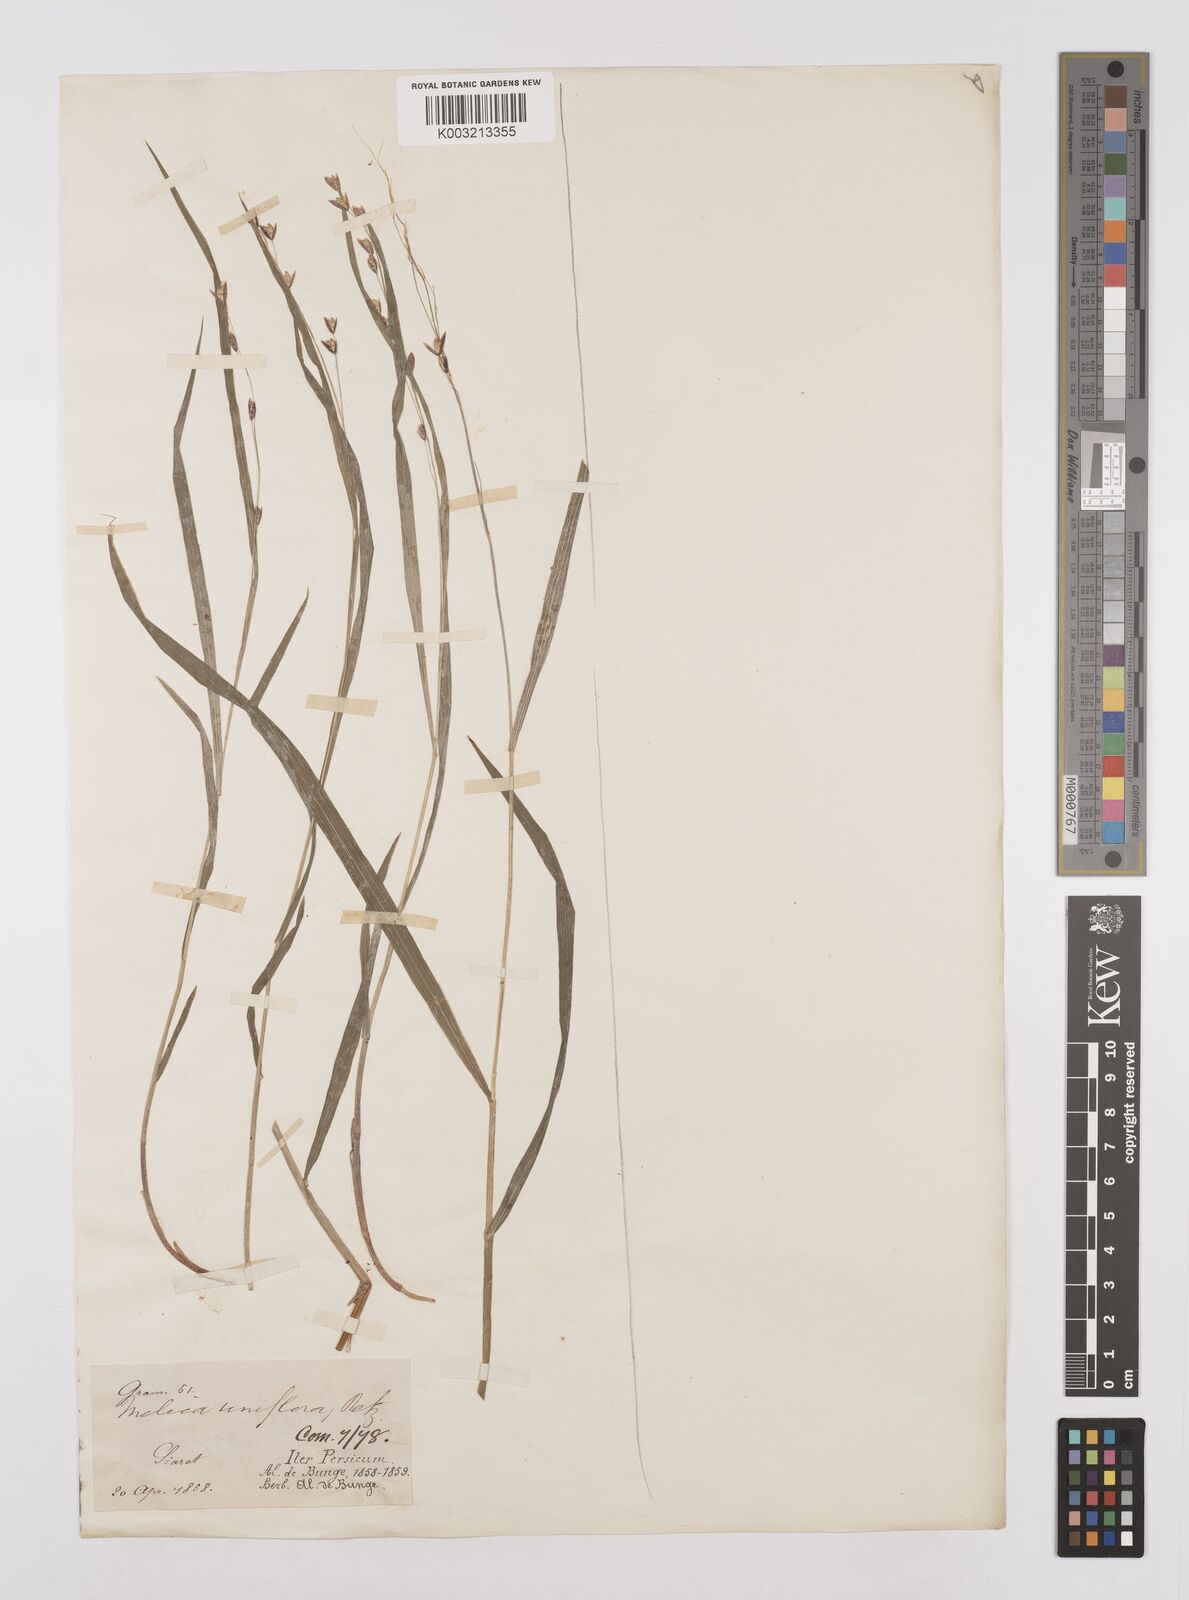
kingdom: Plantae
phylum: Tracheophyta
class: Liliopsida
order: Poales
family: Poaceae
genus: Melica
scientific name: Melica uniflora
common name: Wood melick
